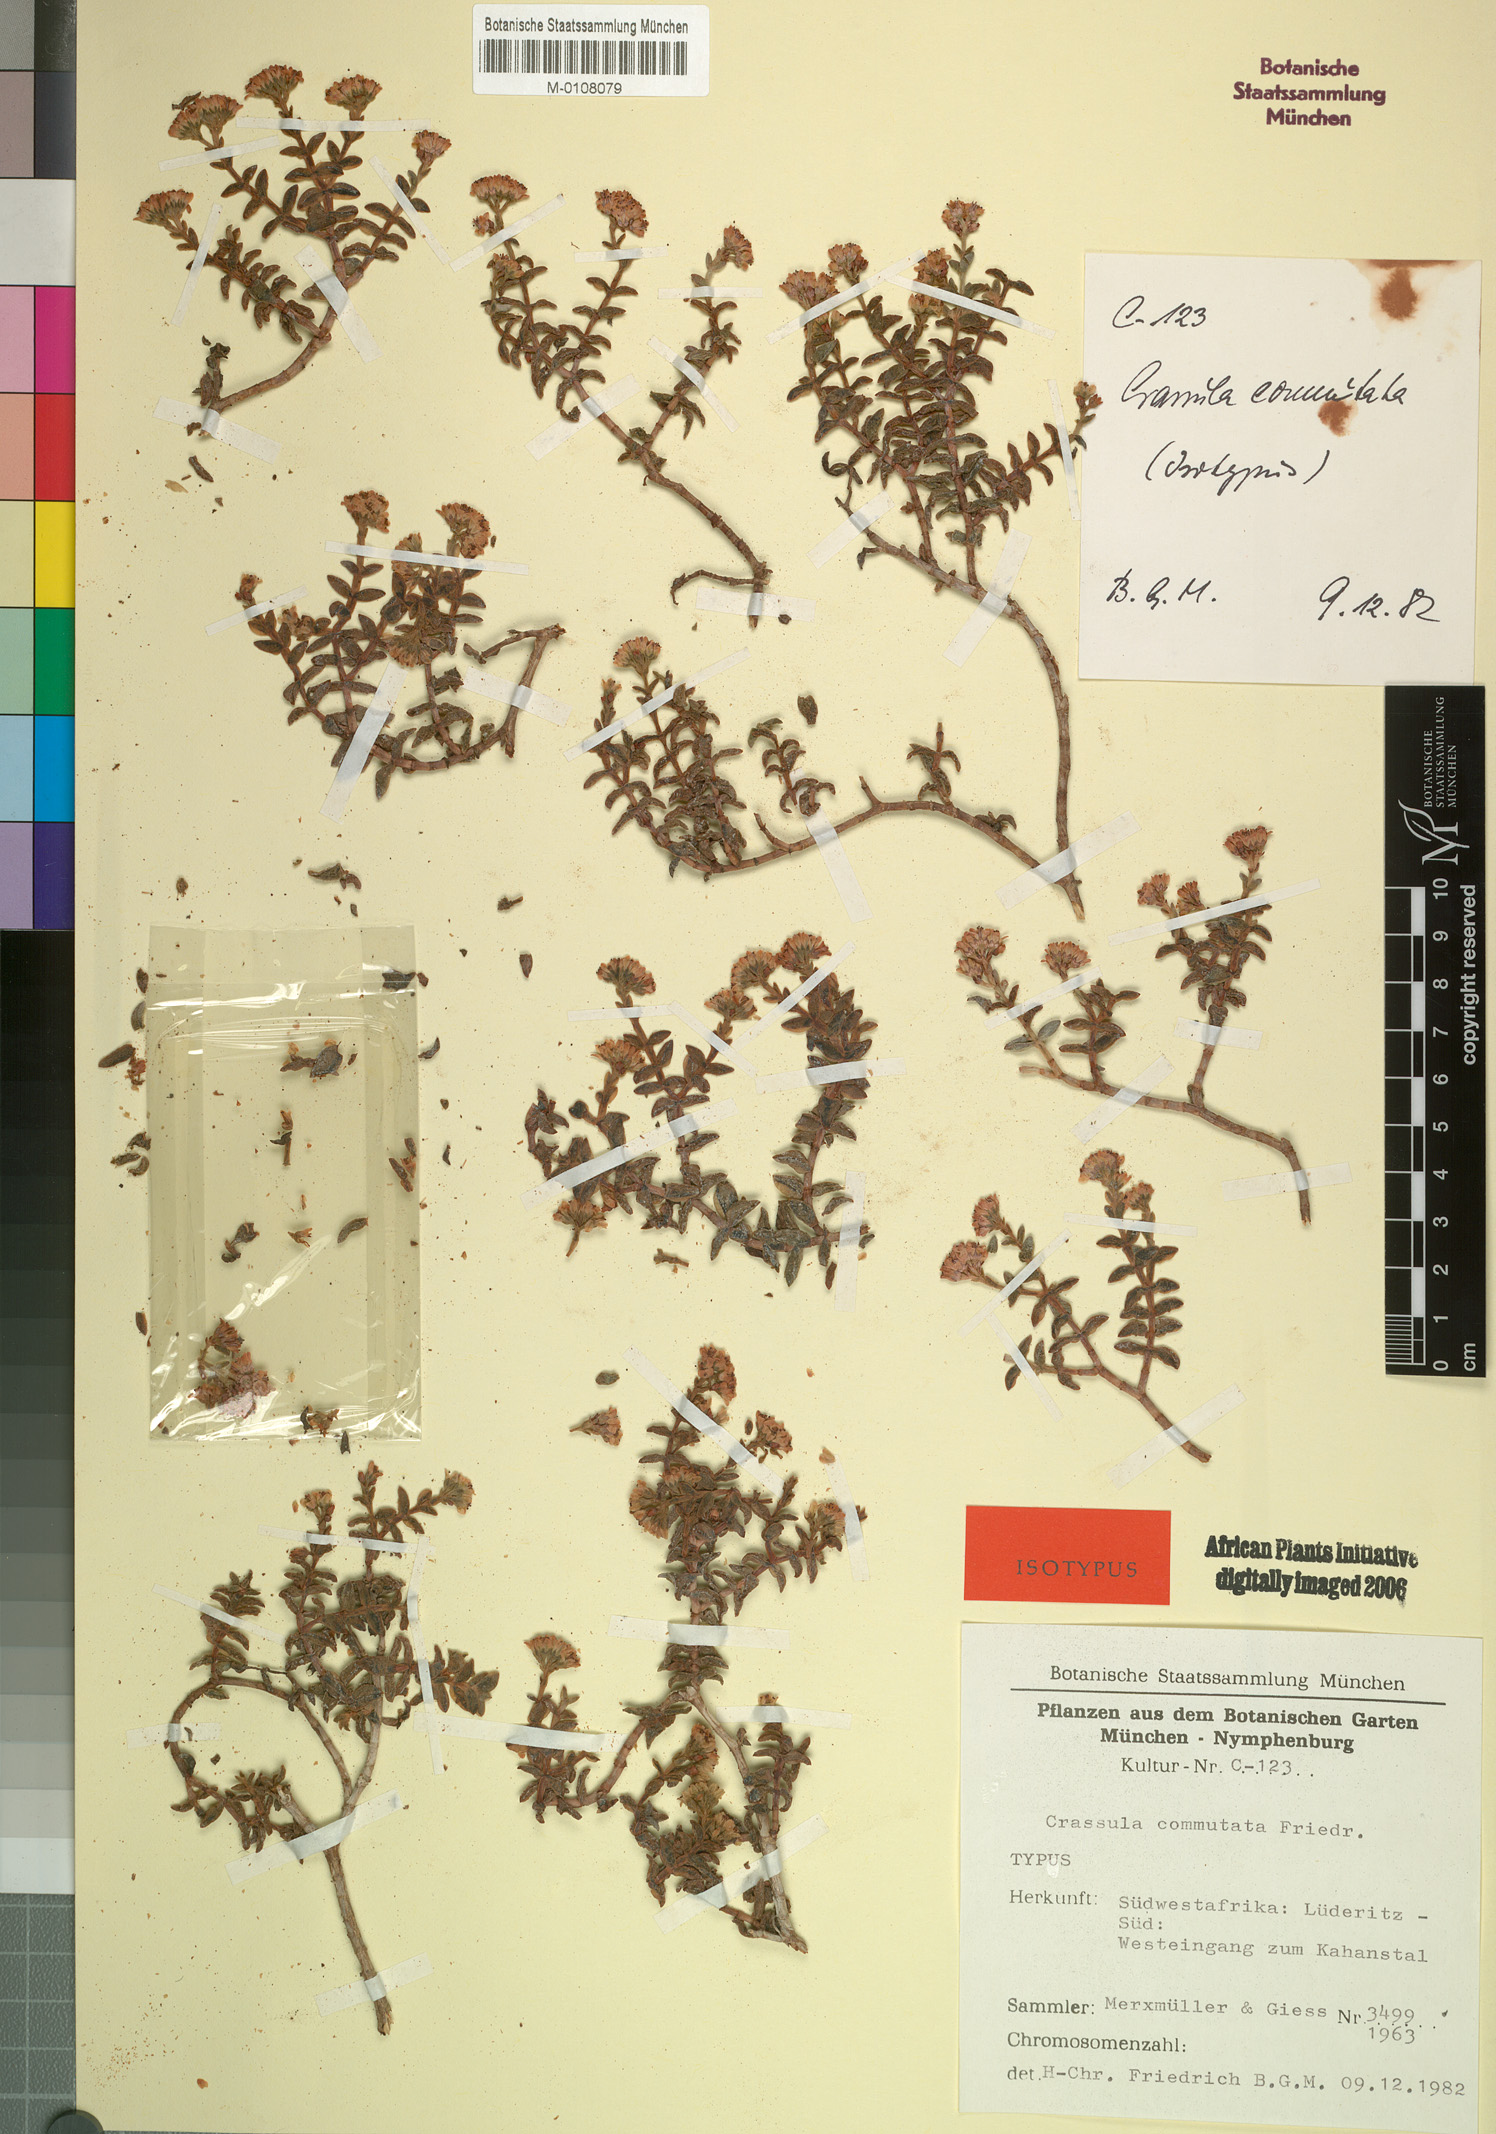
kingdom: Plantae
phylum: Tracheophyta
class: Magnoliopsida
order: Saxifragales
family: Crassulaceae
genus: Crassula
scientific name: Crassula rupestris
